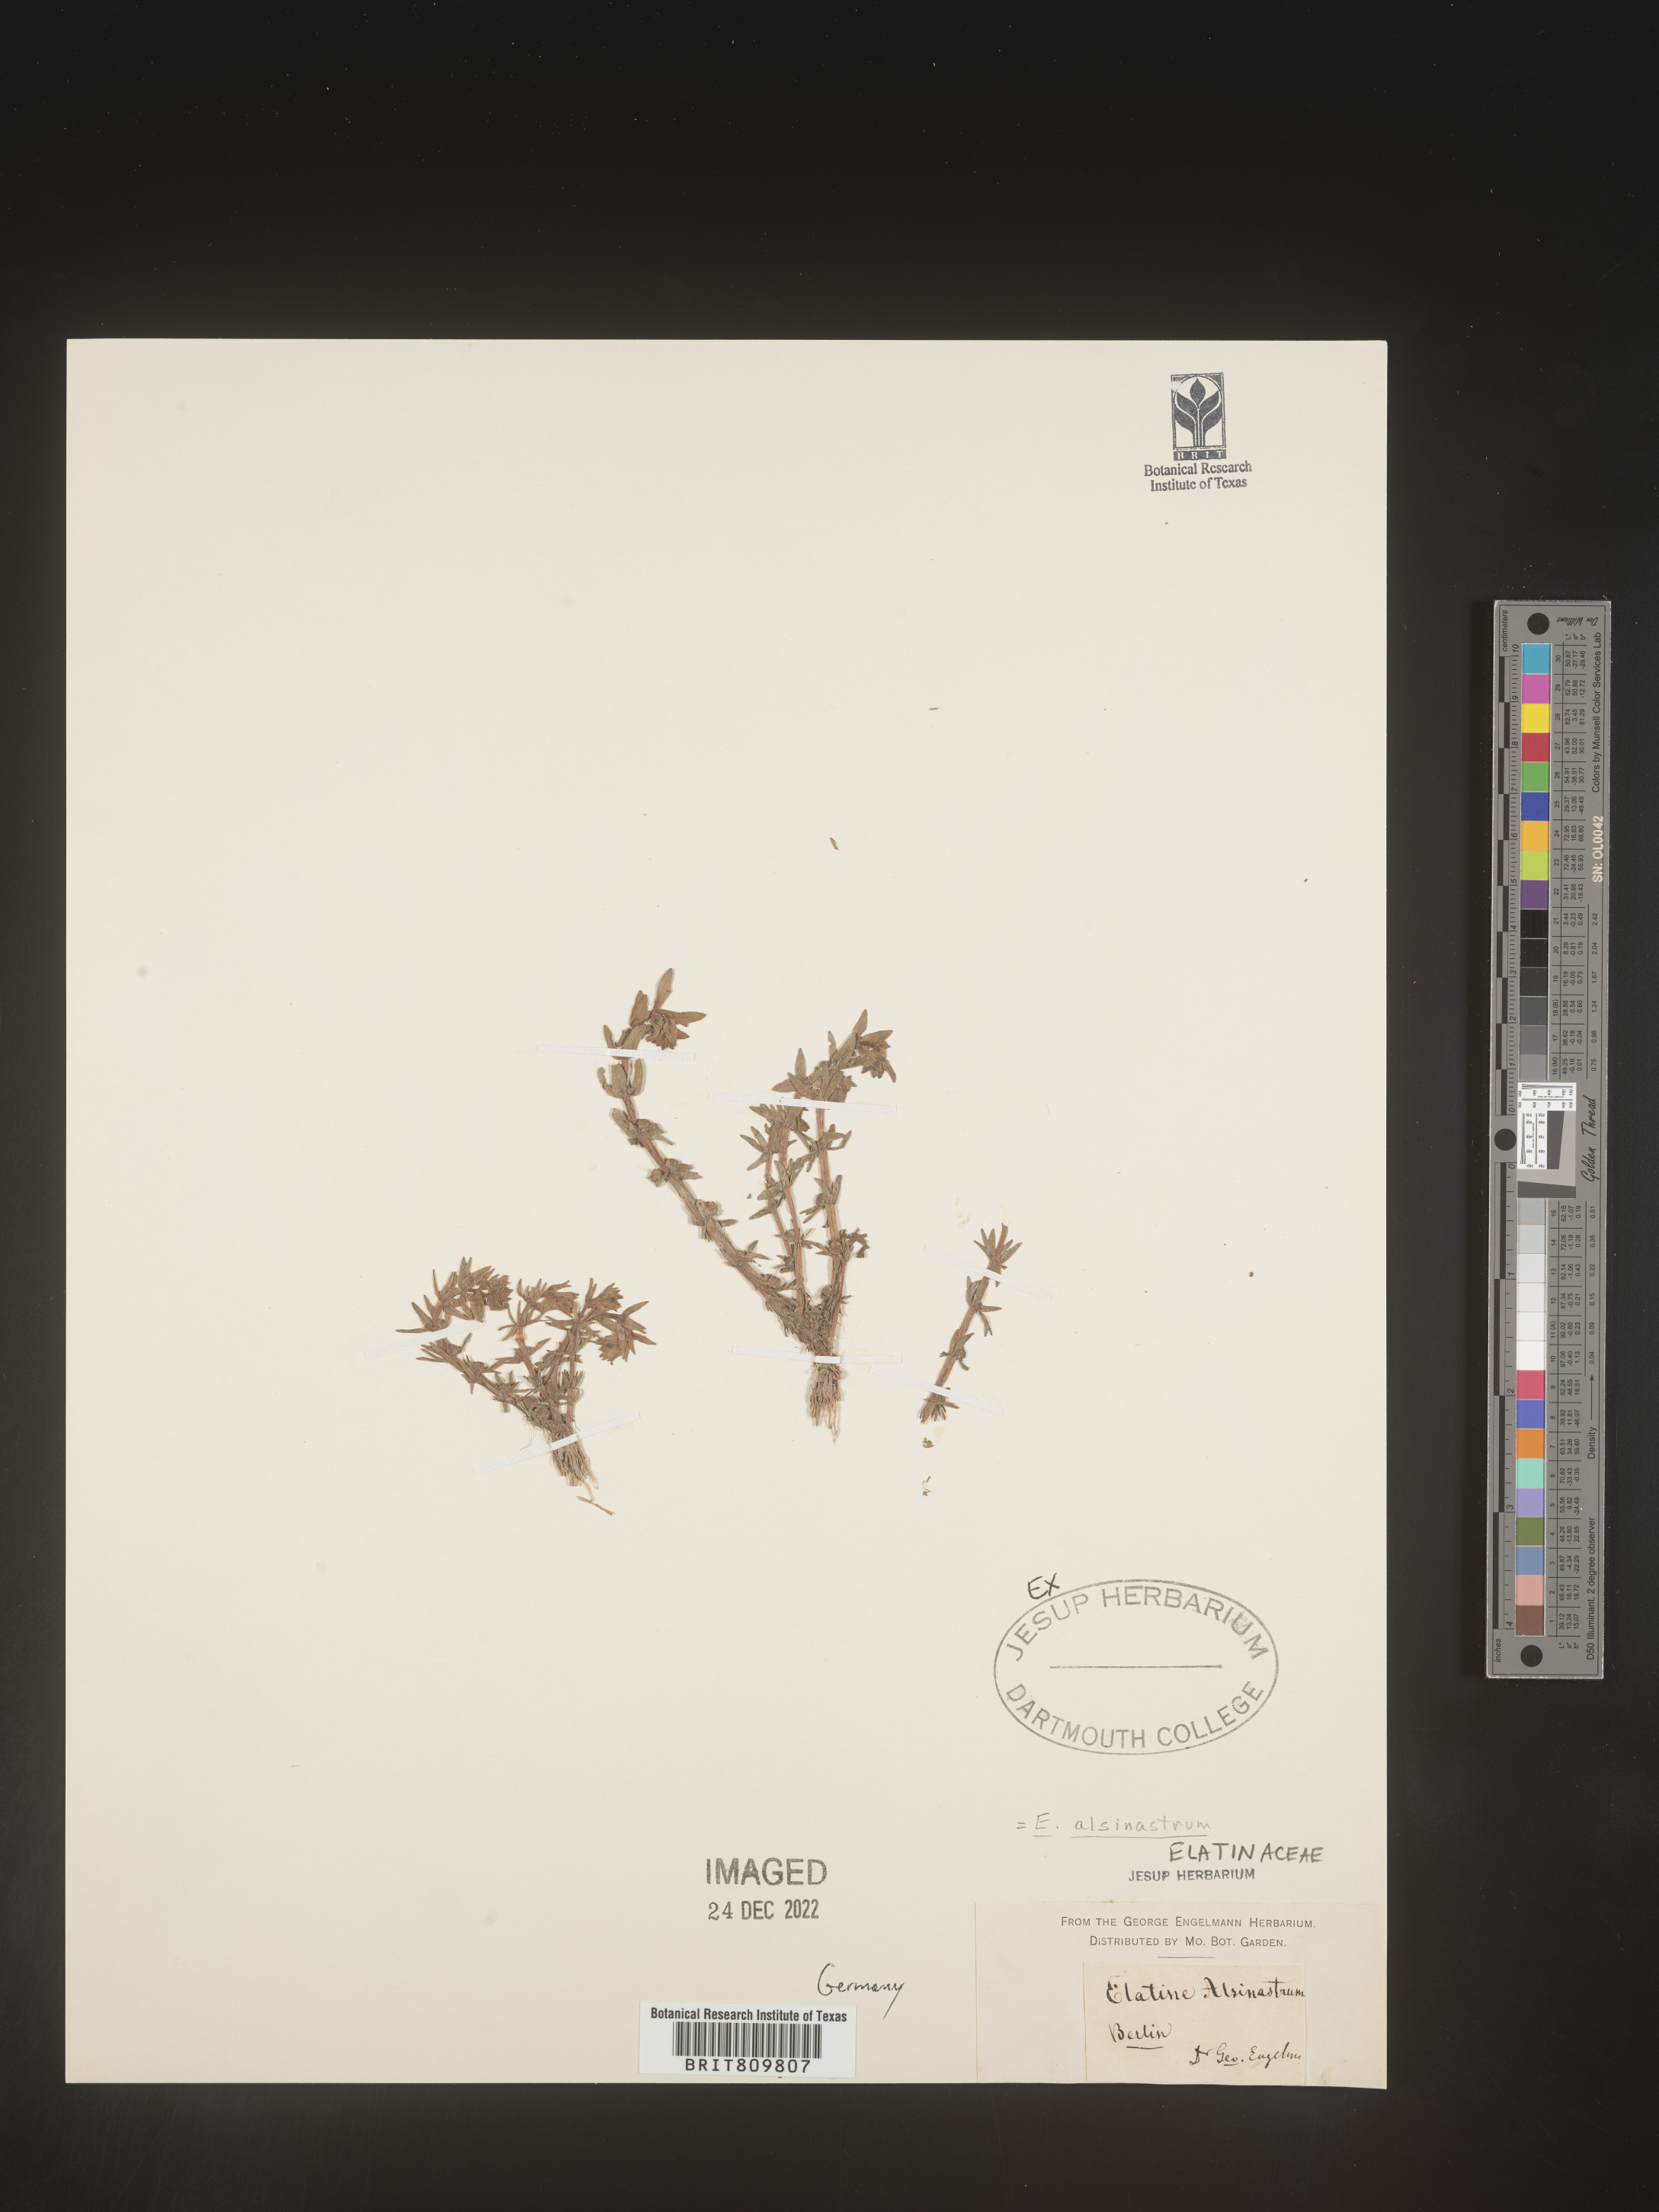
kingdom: Plantae
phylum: Tracheophyta
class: Magnoliopsida
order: Malpighiales
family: Elatinaceae
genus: Elatine
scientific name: Elatine
